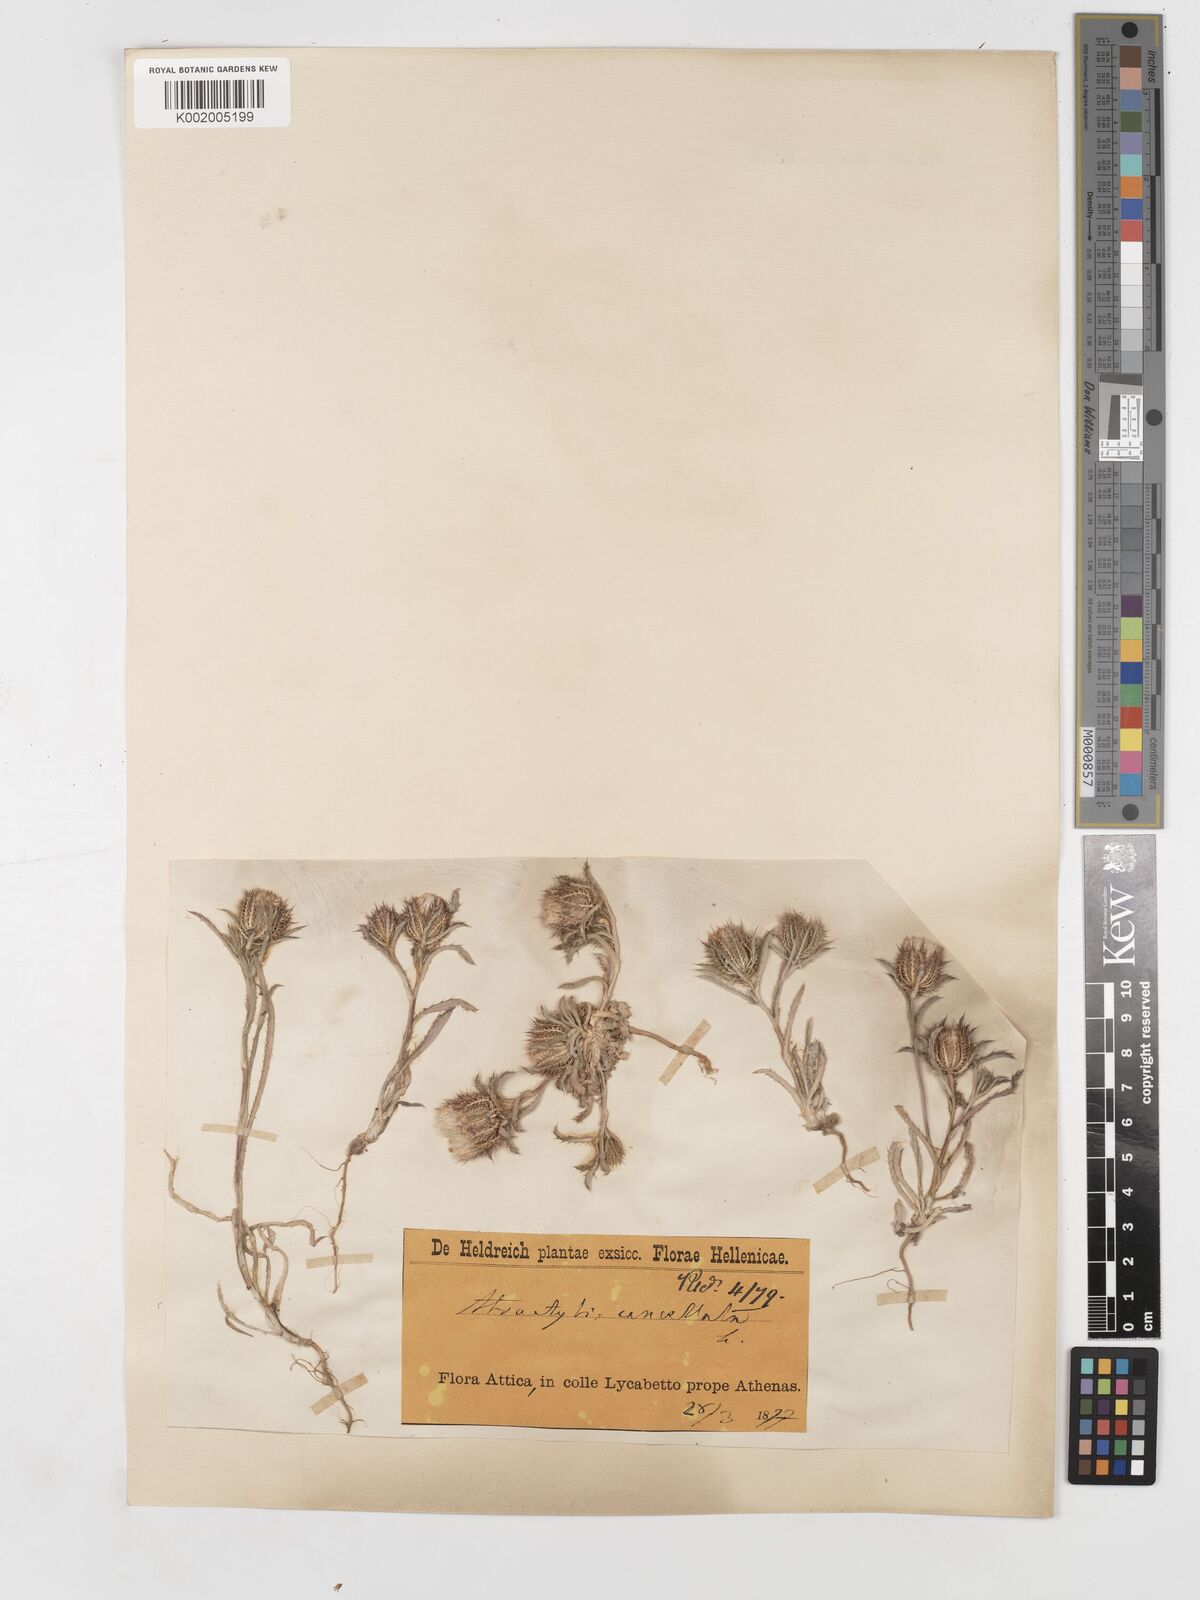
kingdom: Plantae
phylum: Tracheophyta
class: Magnoliopsida
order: Asterales
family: Asteraceae
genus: Atractylis
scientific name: Atractylis cancellata
